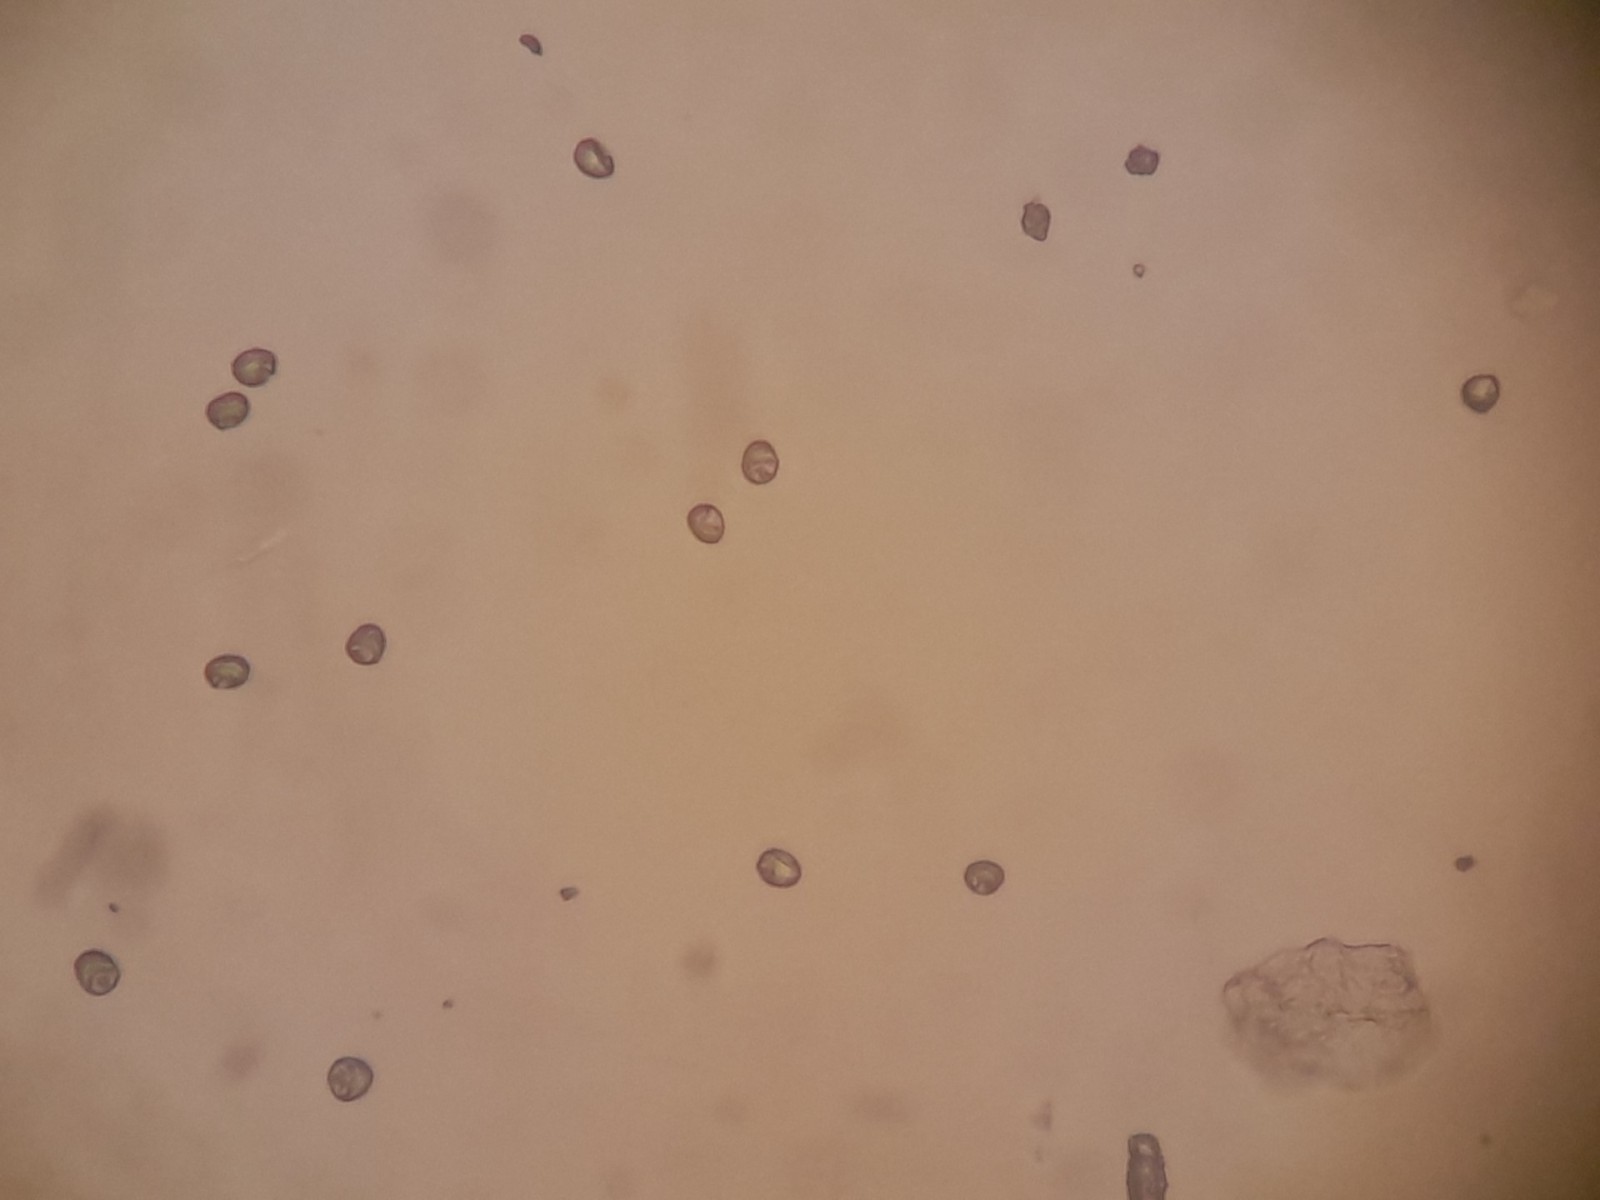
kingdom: Fungi
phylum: Basidiomycota
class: Agaricomycetes
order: Agaricales
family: Radulomycetaceae
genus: Radulomyces
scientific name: Radulomyces
